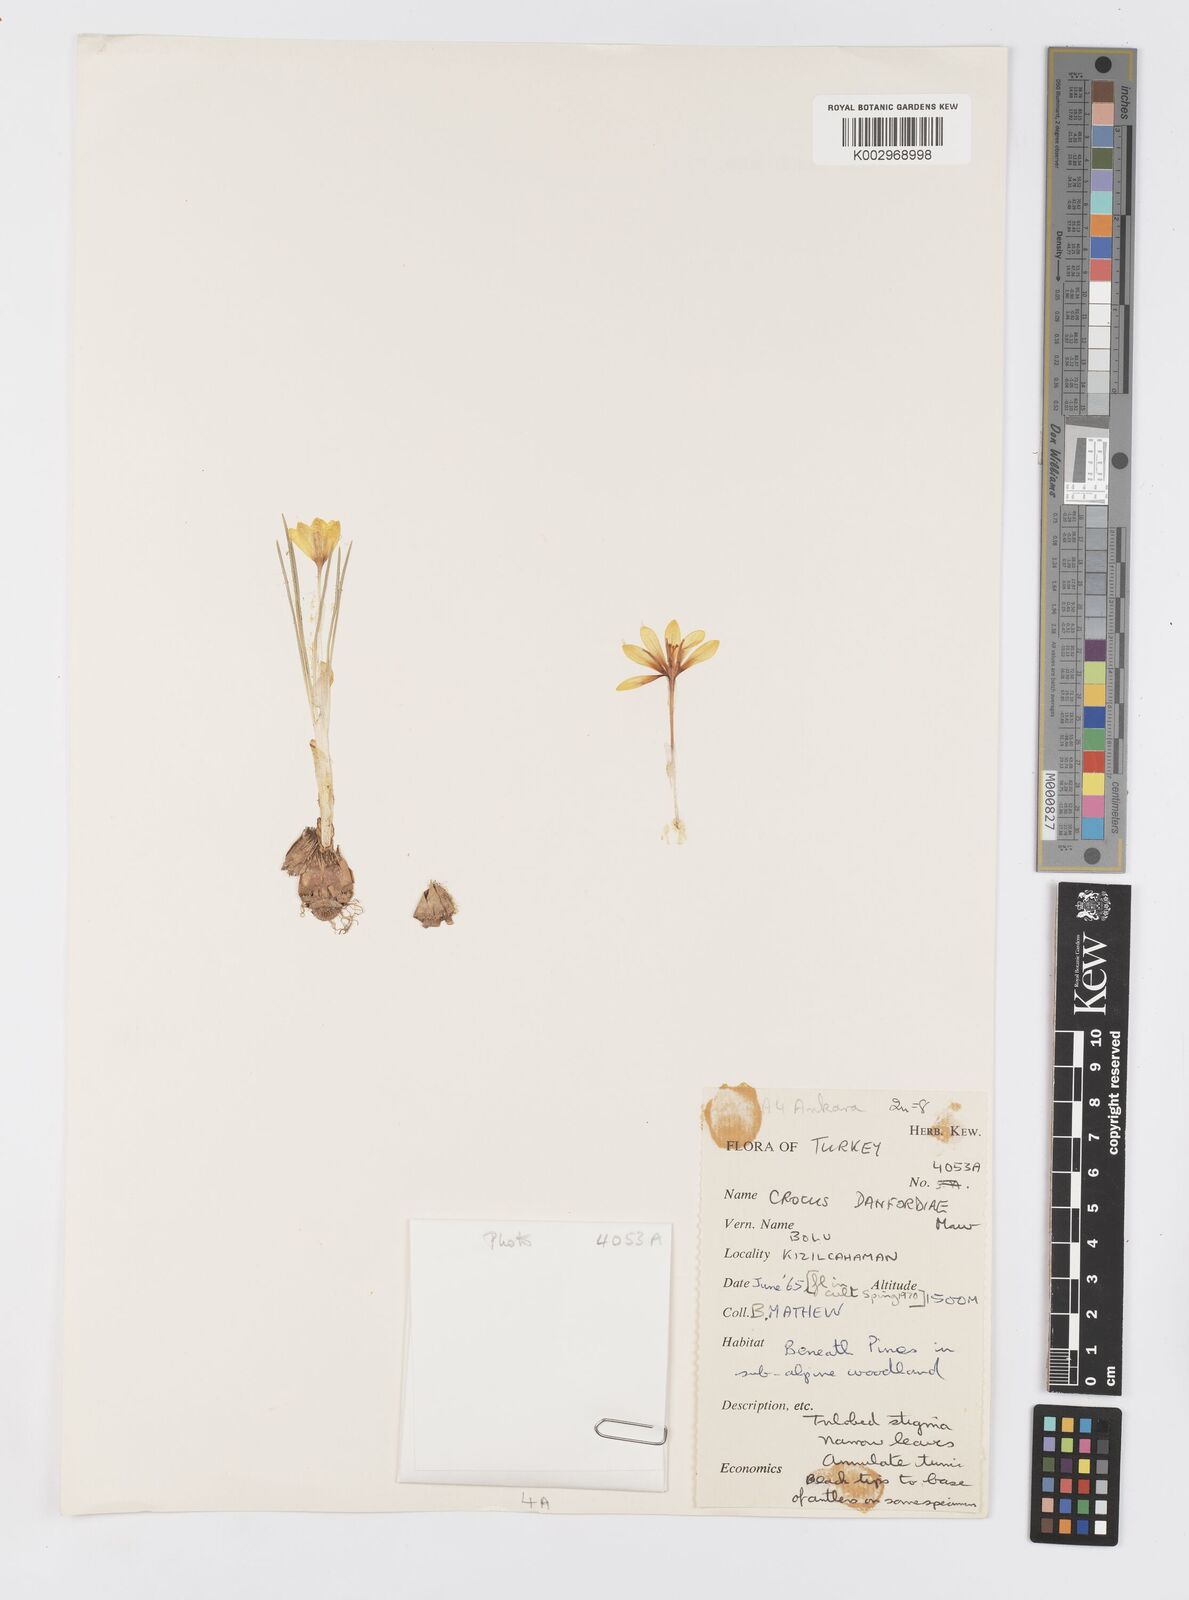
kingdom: Plantae
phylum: Tracheophyta
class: Liliopsida
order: Asparagales
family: Iridaceae
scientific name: Iridaceae
